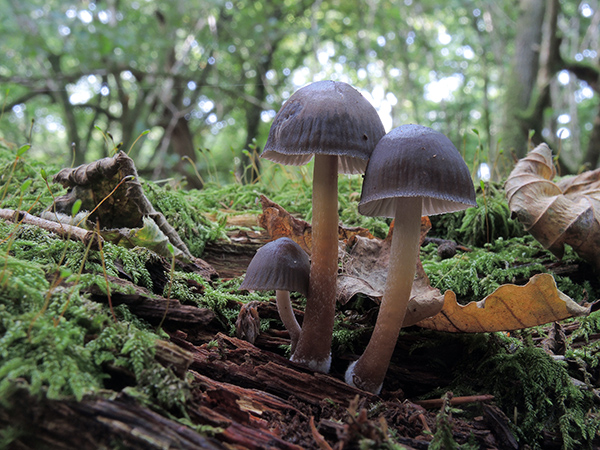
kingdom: Fungi
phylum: Basidiomycota
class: Agaricomycetes
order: Agaricales
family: Mycenaceae
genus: Mycena
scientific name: Mycena inclinata
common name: nikkende huesvamp
